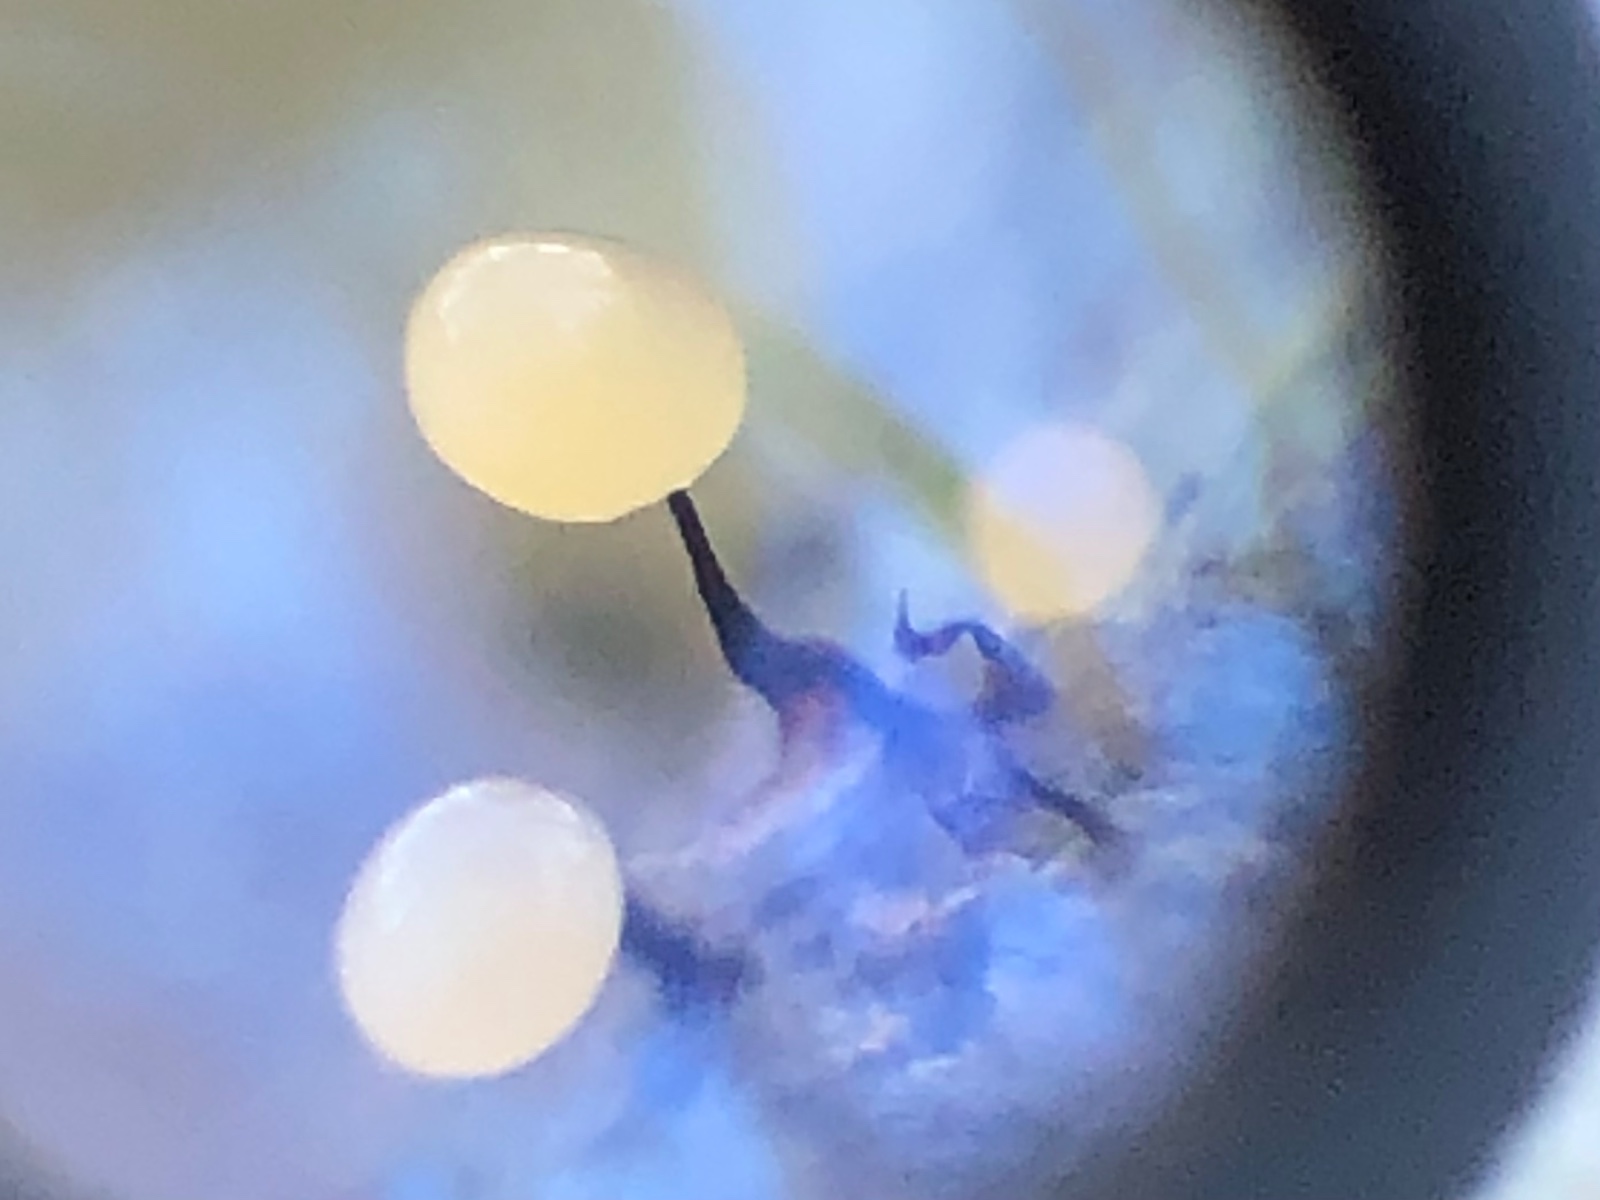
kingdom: Protozoa
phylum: Mycetozoa
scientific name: Mycetozoa
